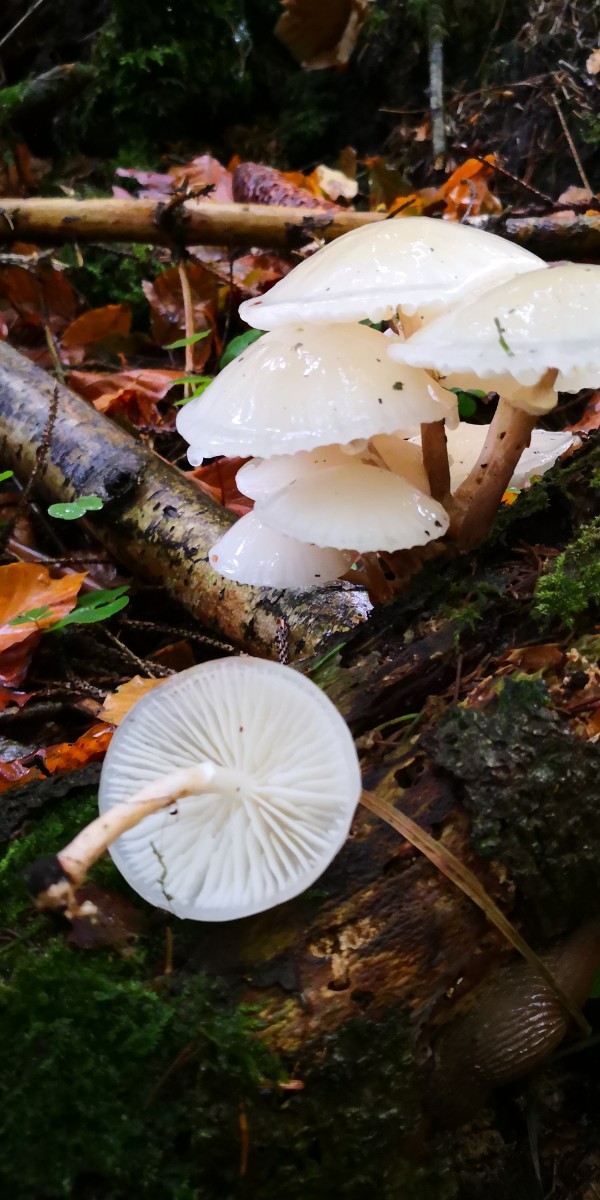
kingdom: Fungi
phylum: Basidiomycota
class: Agaricomycetes
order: Agaricales
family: Physalacriaceae
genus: Mucidula
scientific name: Mucidula mucida
